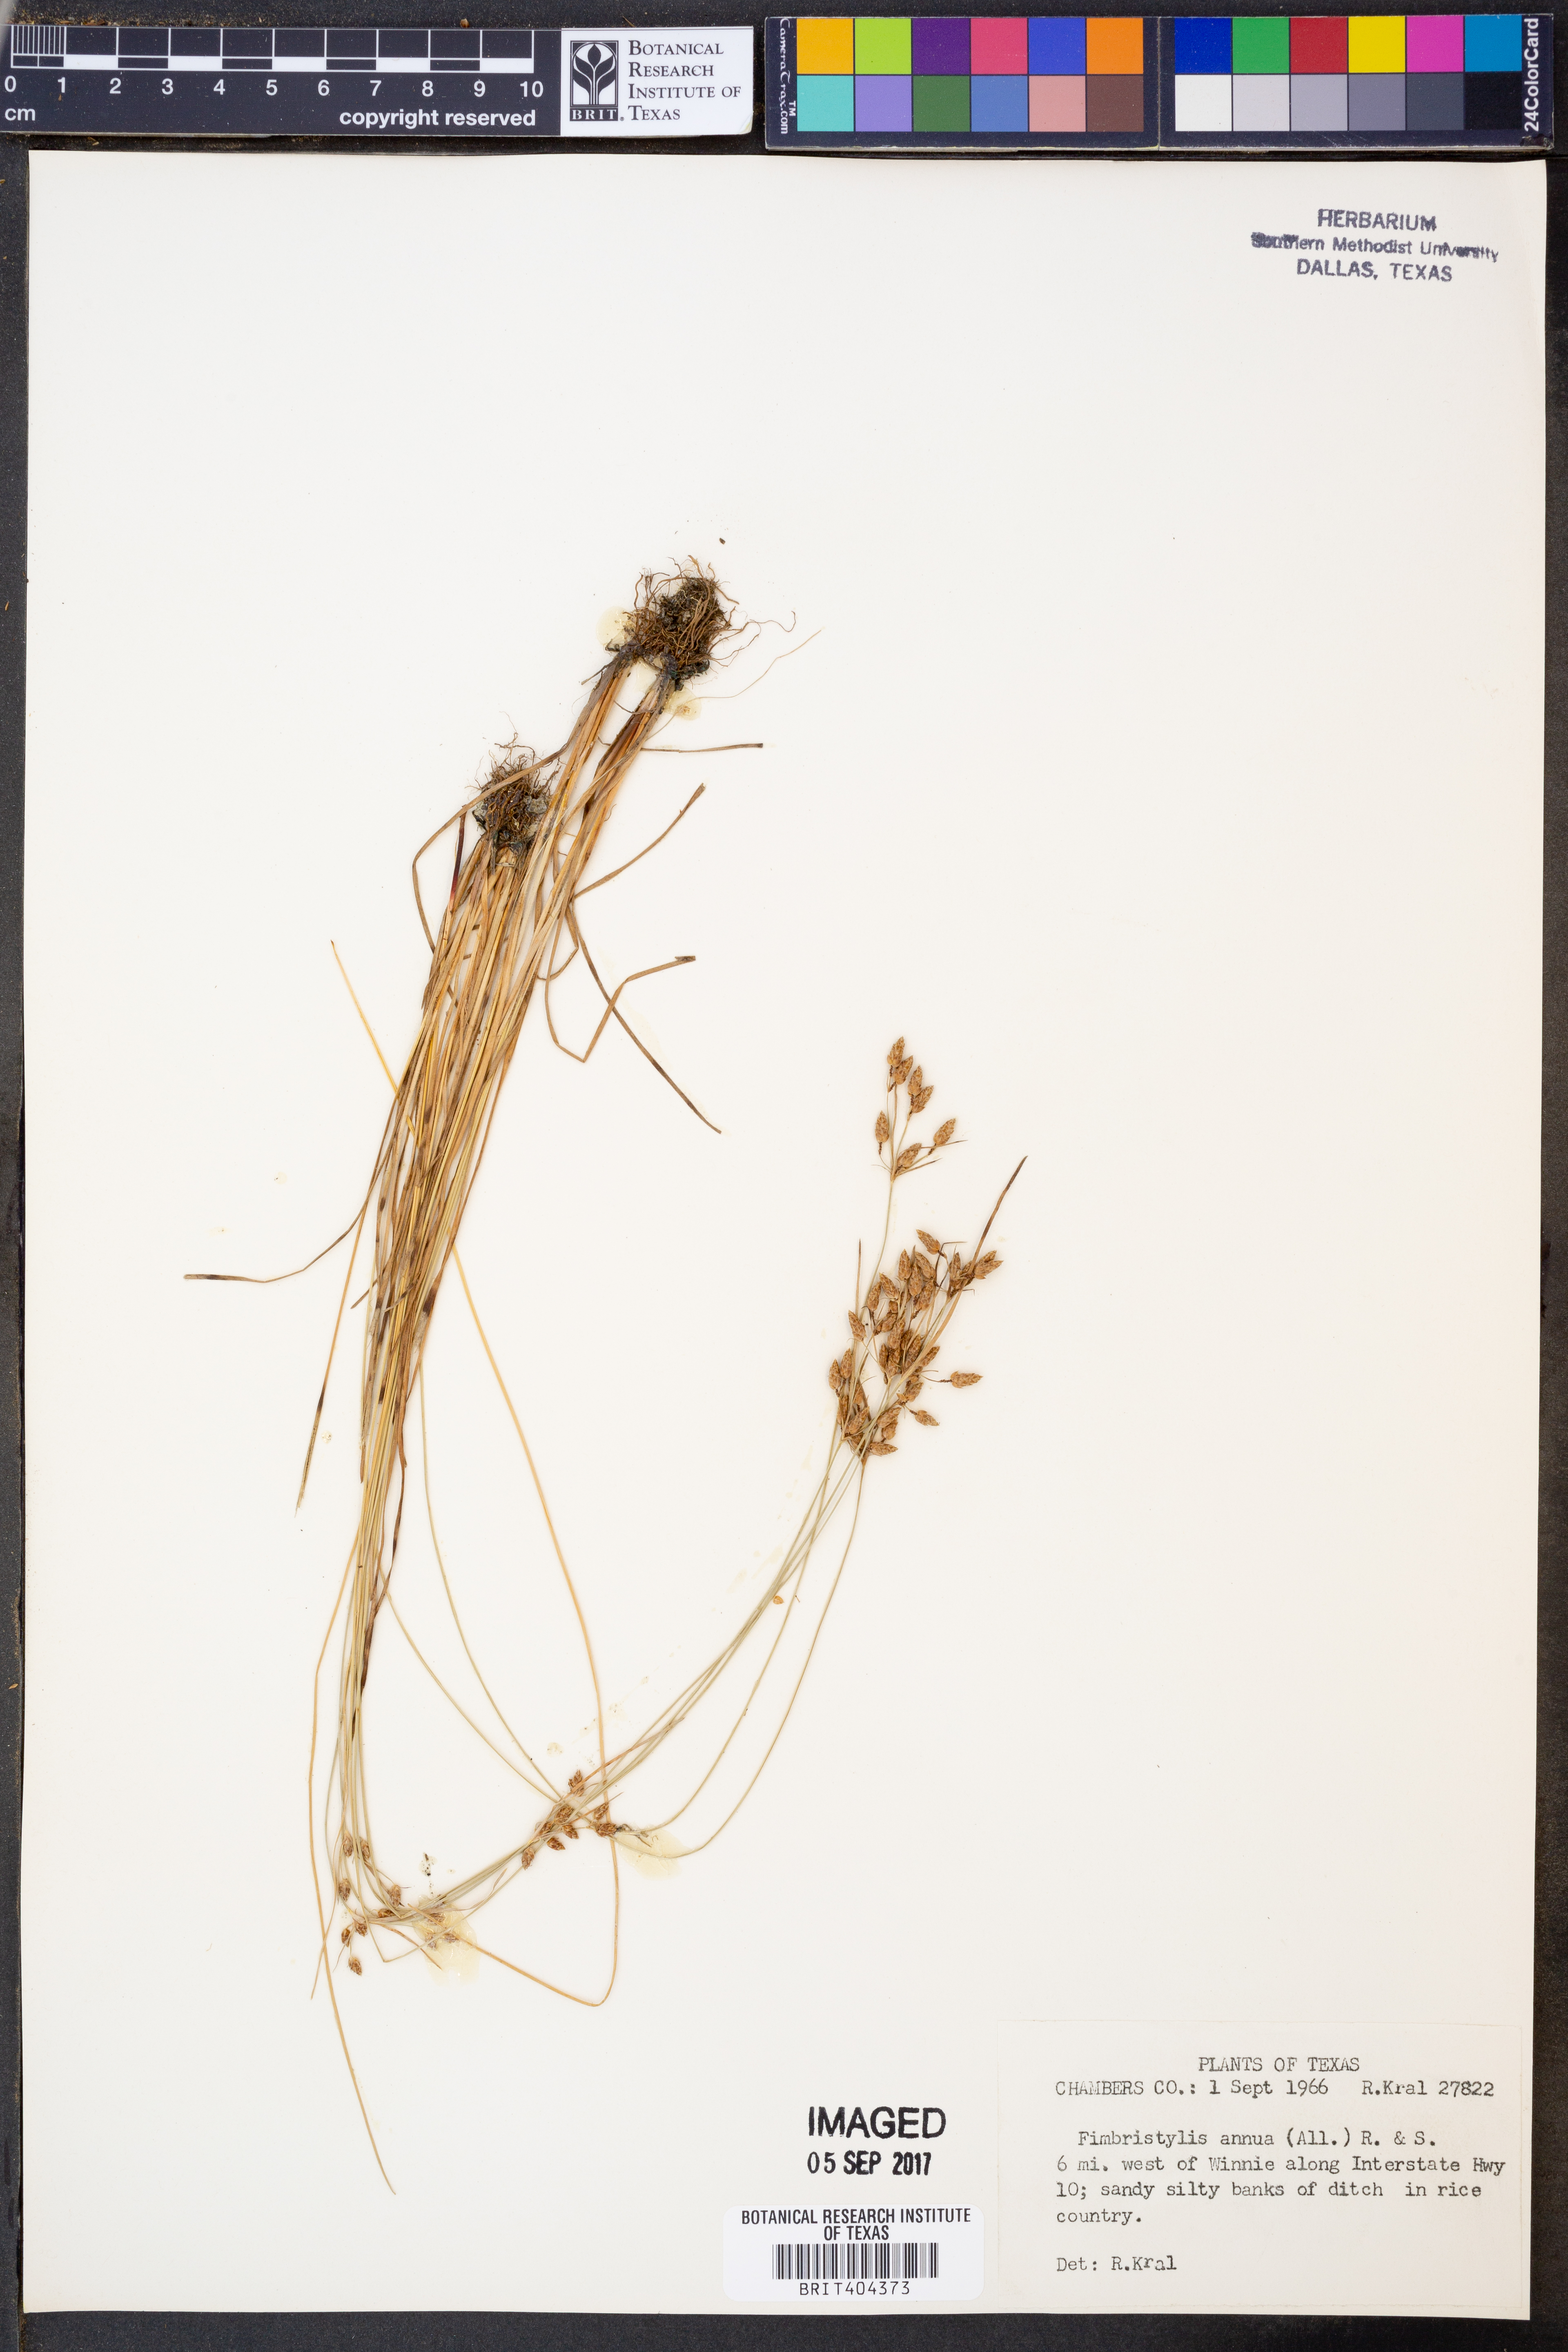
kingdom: Plantae
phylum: Tracheophyta
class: Liliopsida
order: Poales
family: Cyperaceae
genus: Fimbristylis
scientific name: Fimbristylis dichotoma
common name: Forked fimbry
